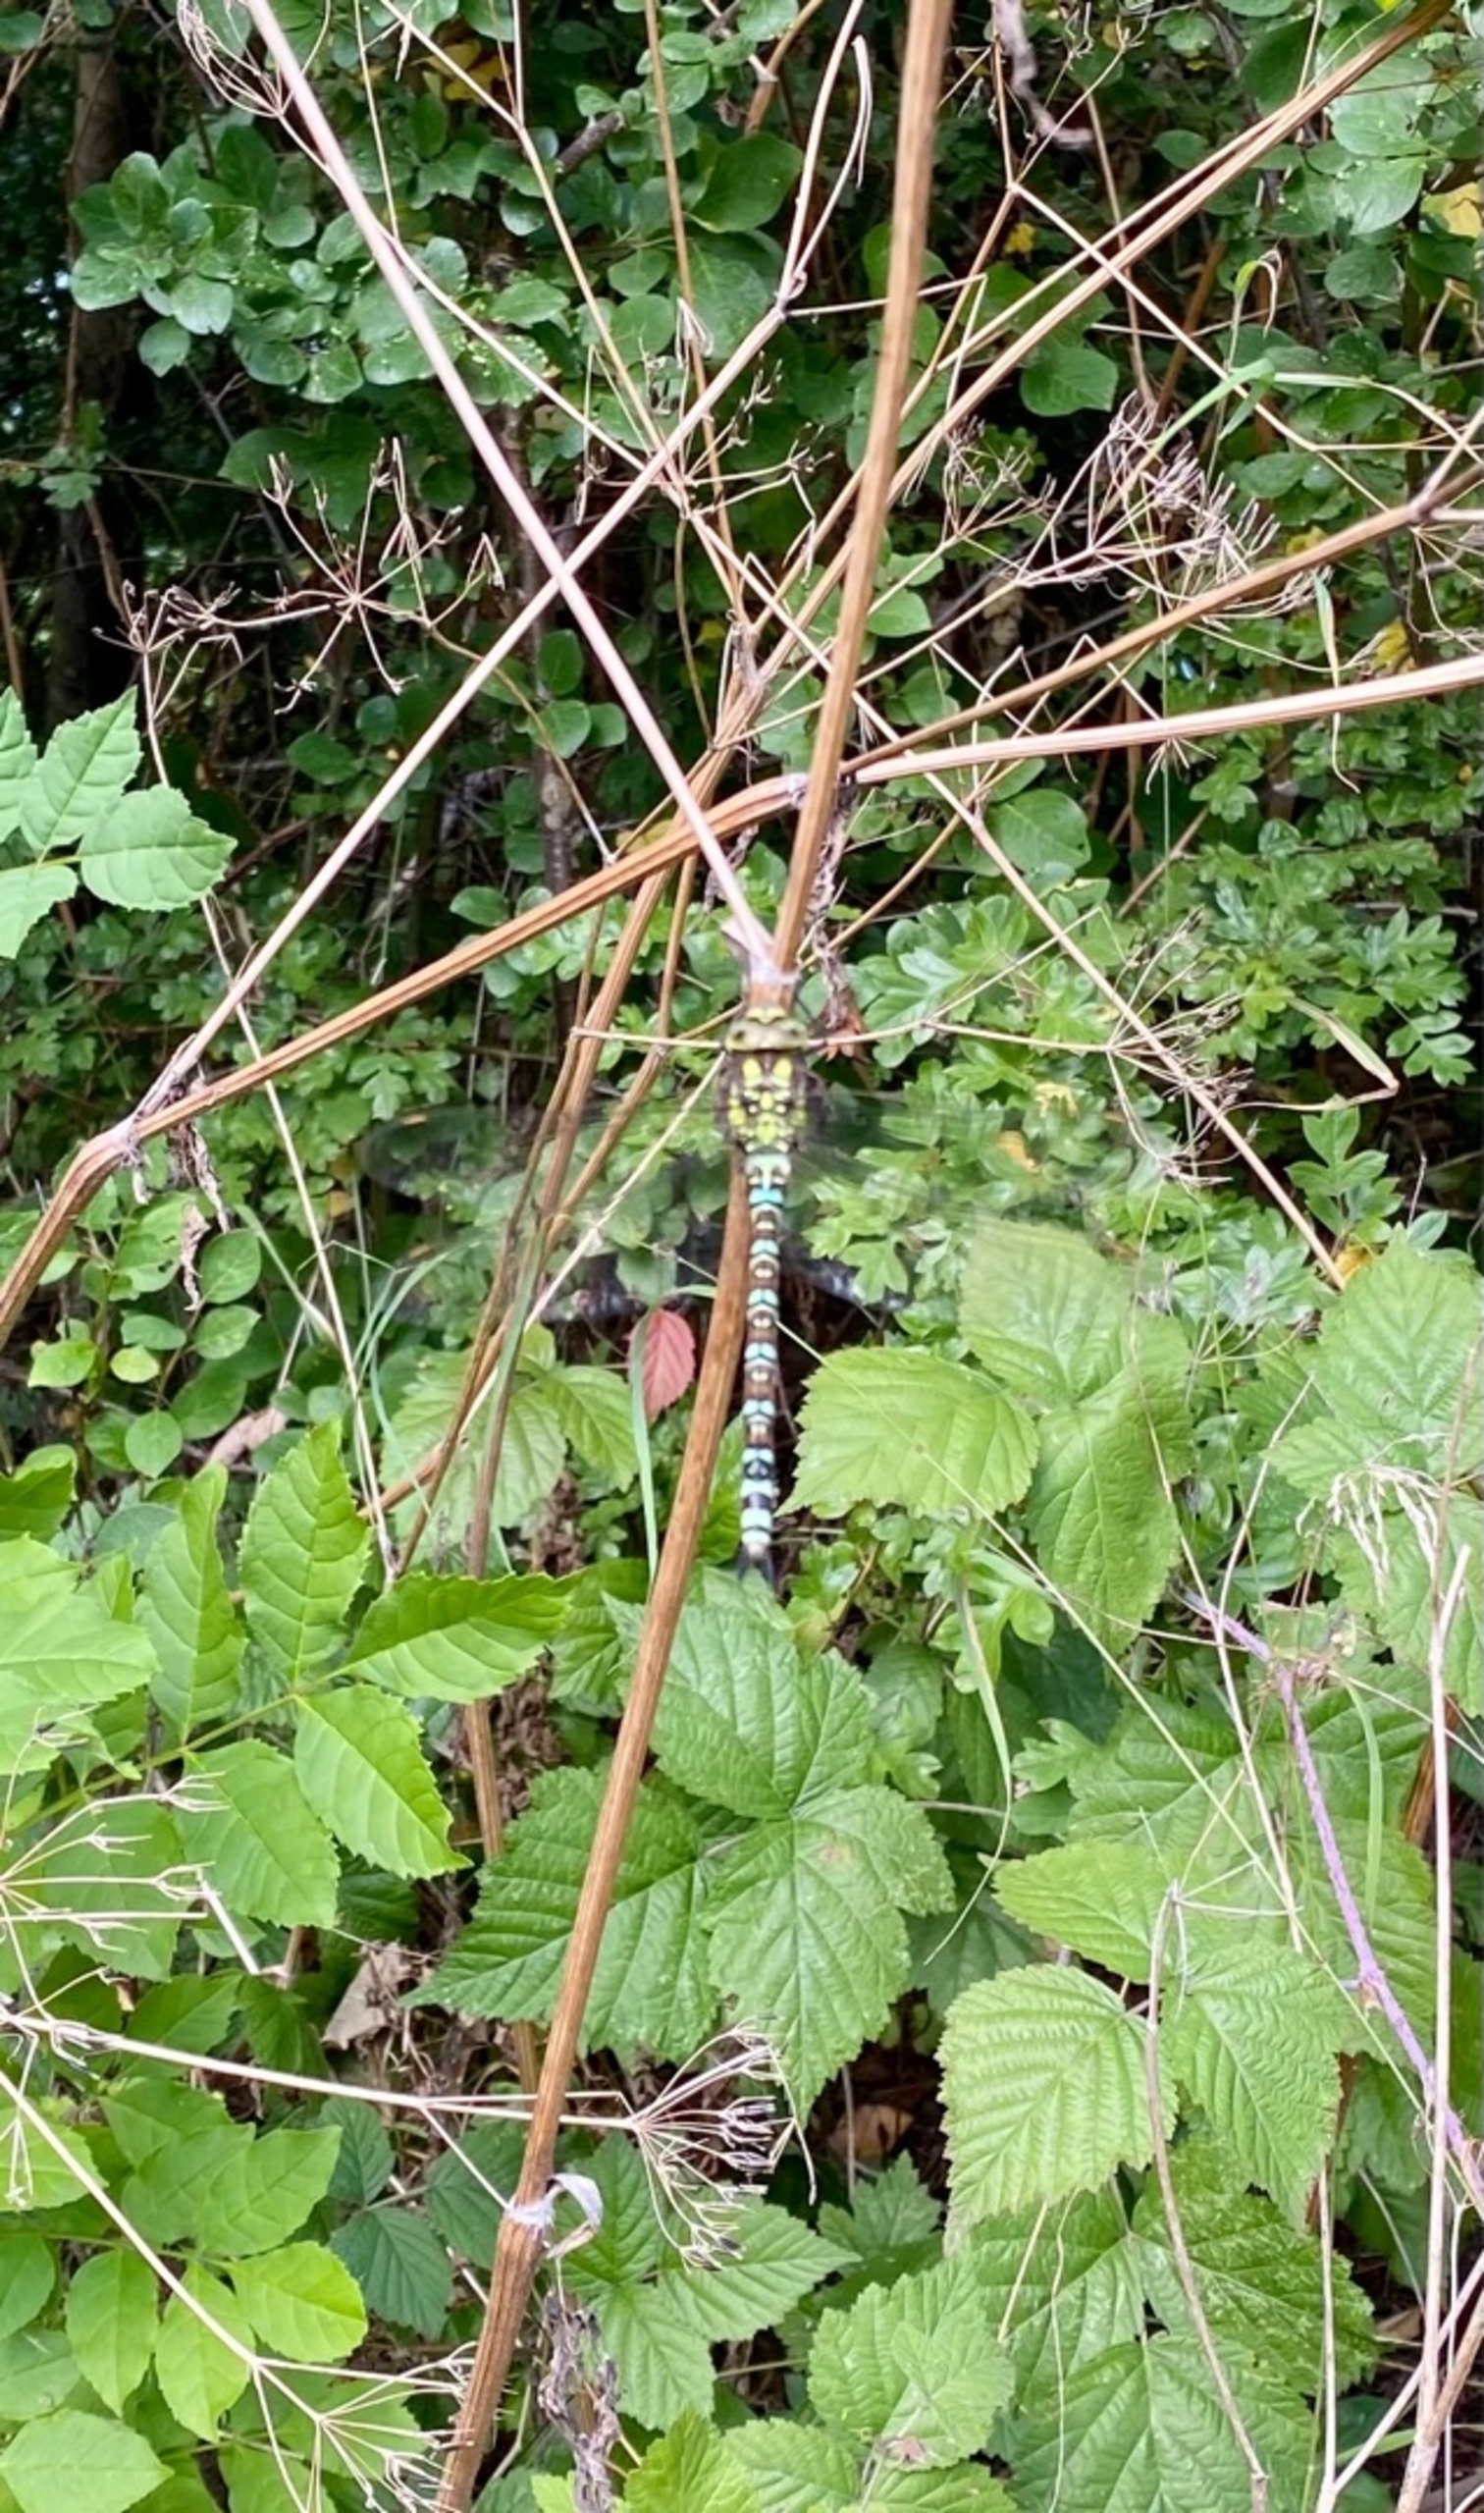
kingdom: Animalia
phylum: Arthropoda
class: Insecta
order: Odonata
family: Aeshnidae
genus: Aeshna
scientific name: Aeshna cyanea
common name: Blå mosaikguldsmed
